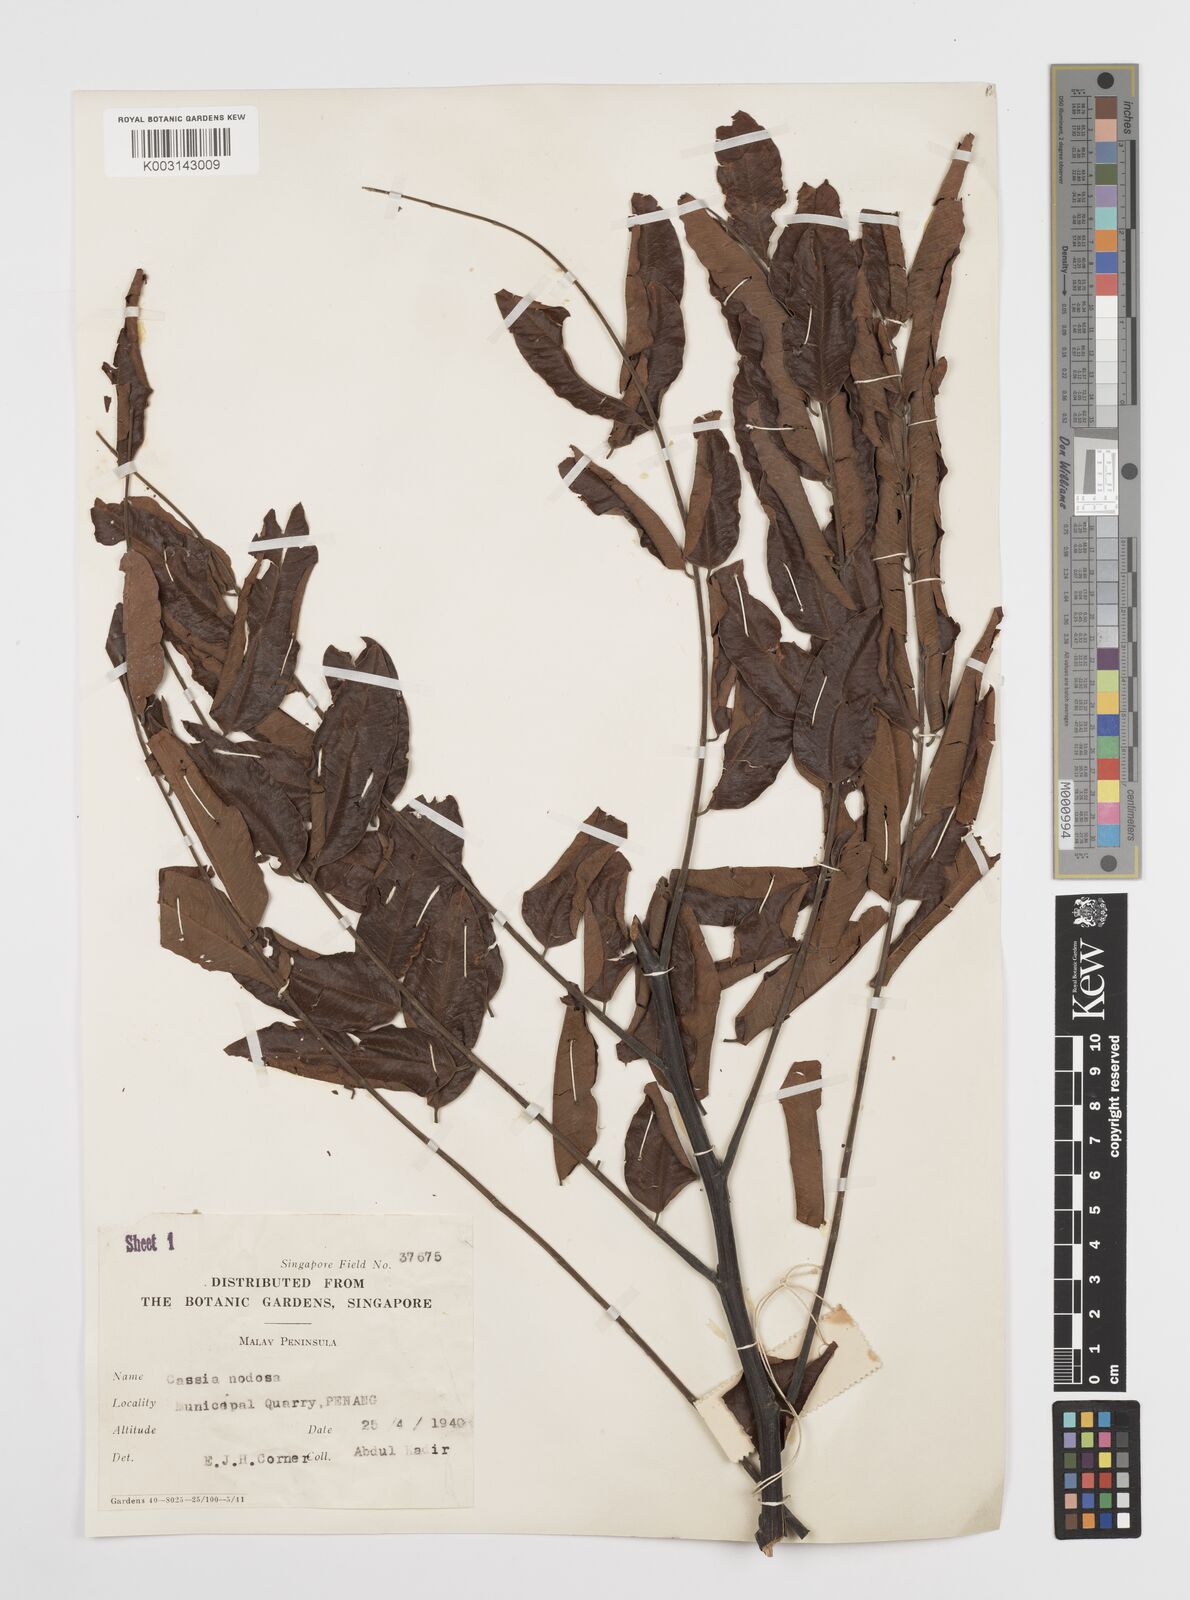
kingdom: Plantae
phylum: Tracheophyta
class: Magnoliopsida
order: Fabales
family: Fabaceae
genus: Cassia
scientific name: Cassia javanica
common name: Apple blossom
